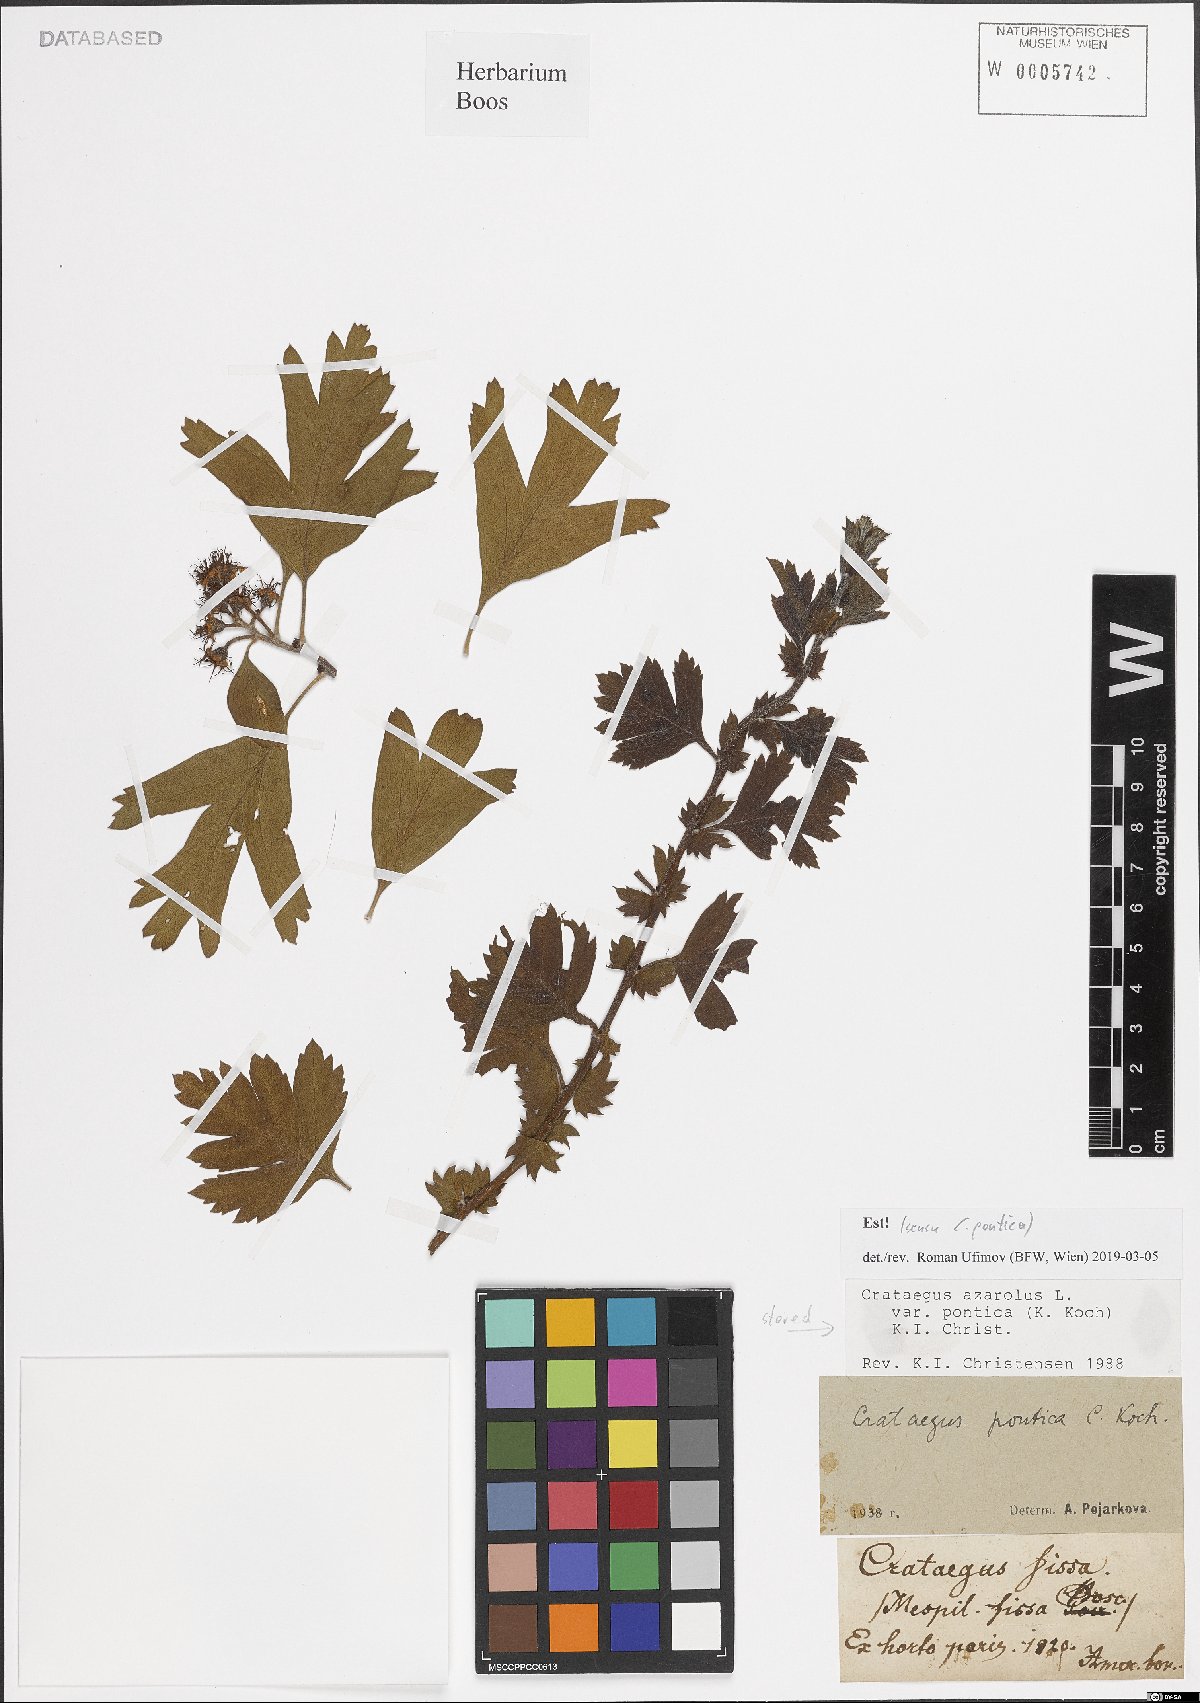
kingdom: Plantae
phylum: Tracheophyta
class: Magnoliopsida
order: Rosales
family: Rosaceae
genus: Crataegus
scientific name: Crataegus azarolus
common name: Azarole
